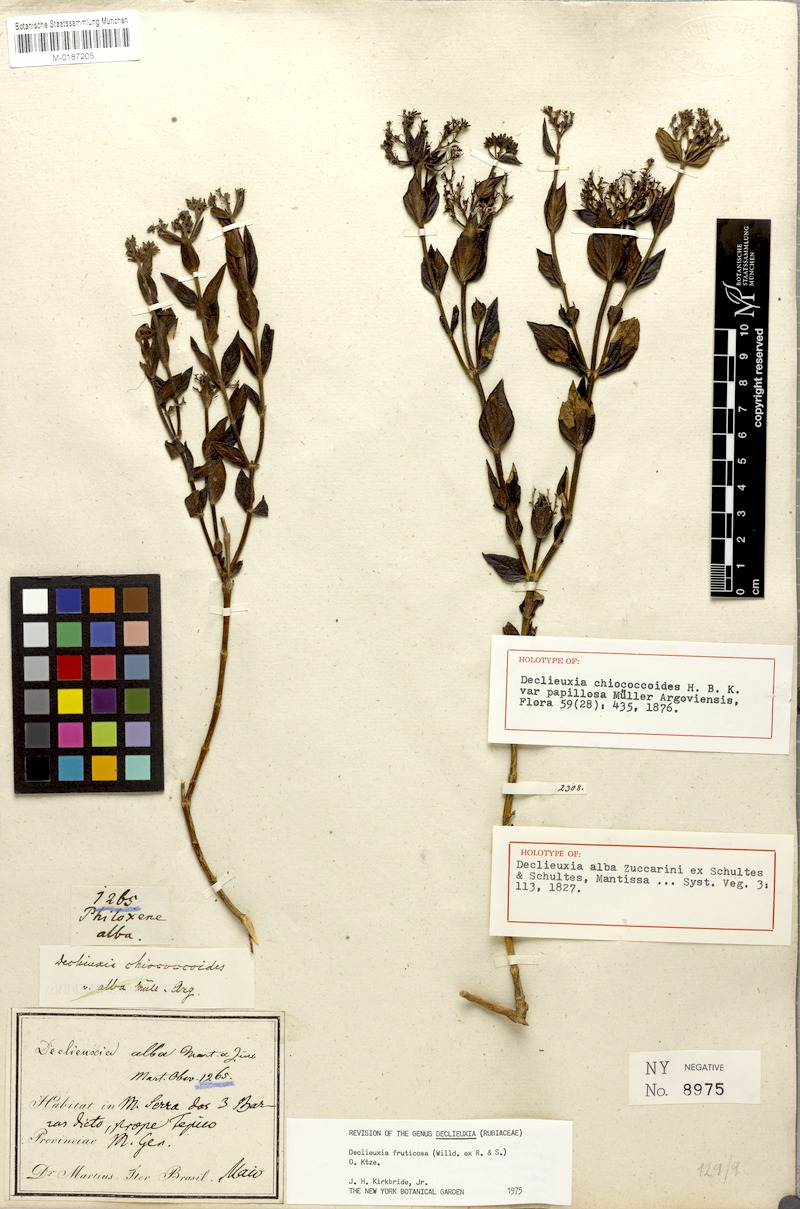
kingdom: Plantae
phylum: Tracheophyta
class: Magnoliopsida
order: Gentianales
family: Rubiaceae
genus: Declieuxia
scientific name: Declieuxia fruticosa
